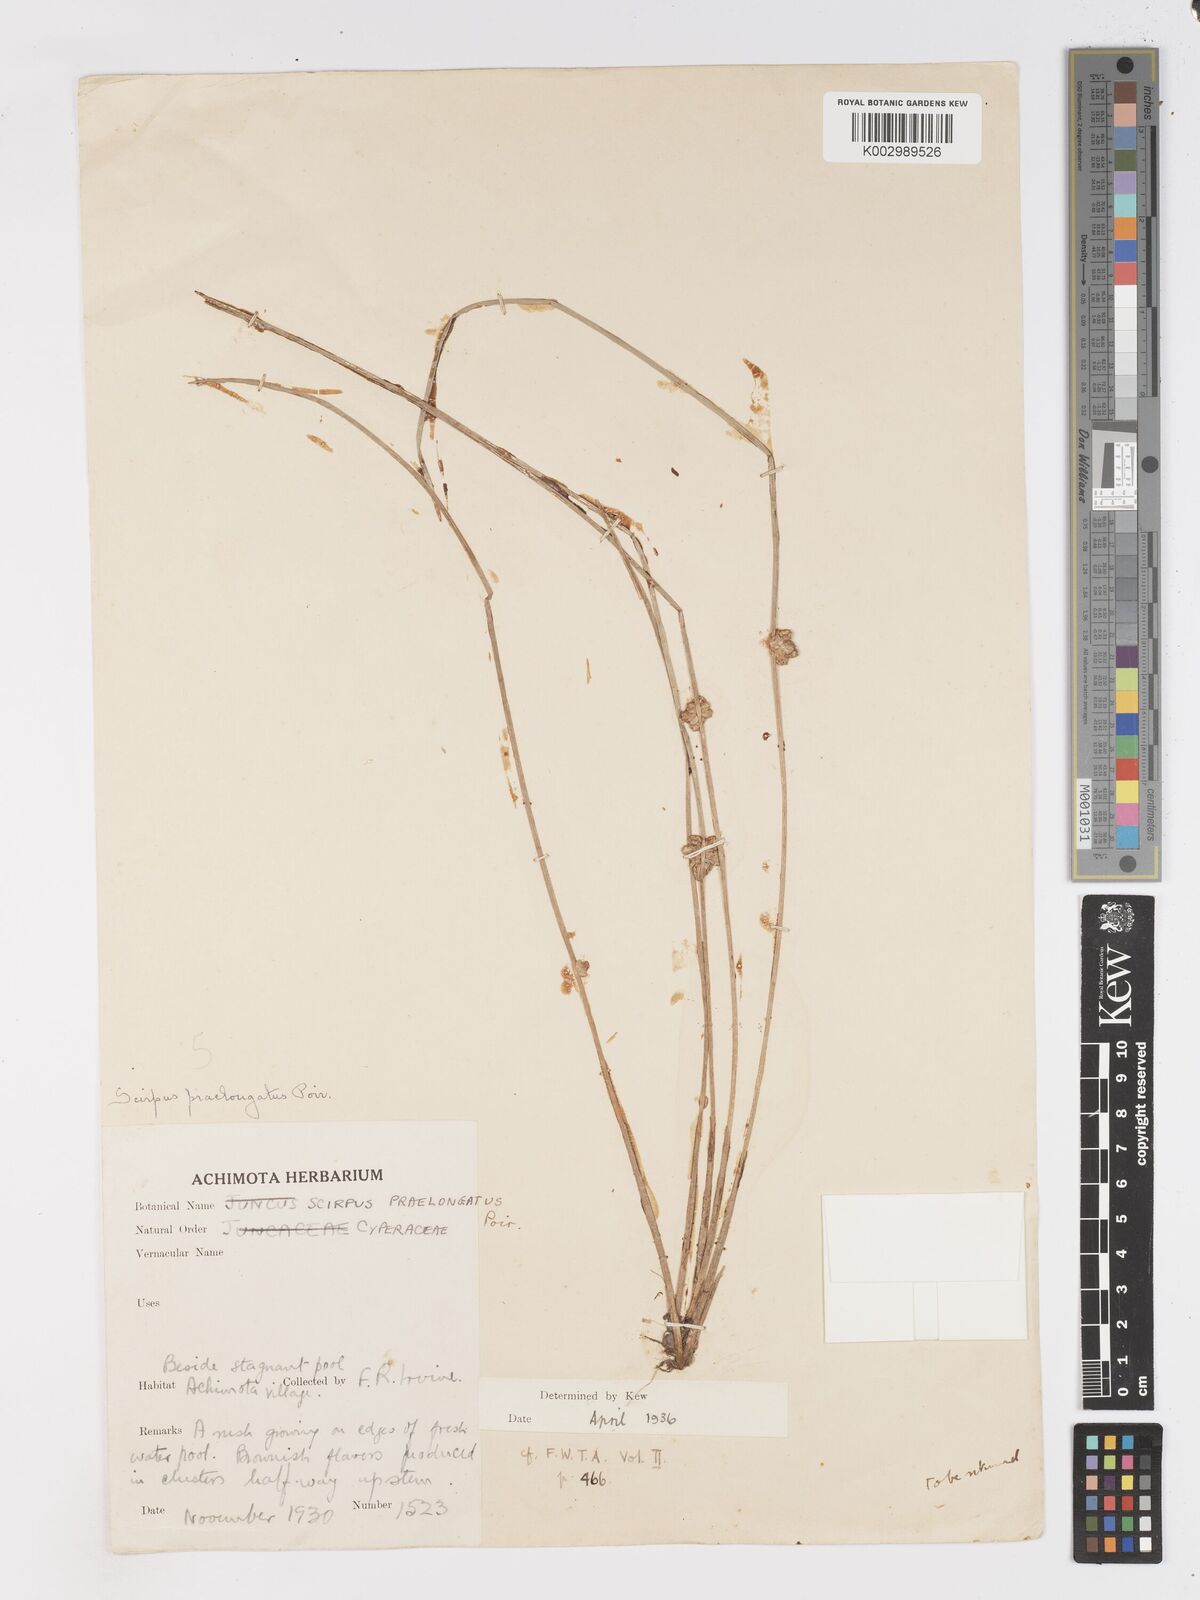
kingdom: Plantae
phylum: Tracheophyta
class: Liliopsida
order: Poales
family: Cyperaceae
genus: Schoenoplectiella
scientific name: Schoenoplectiella senegalensis
